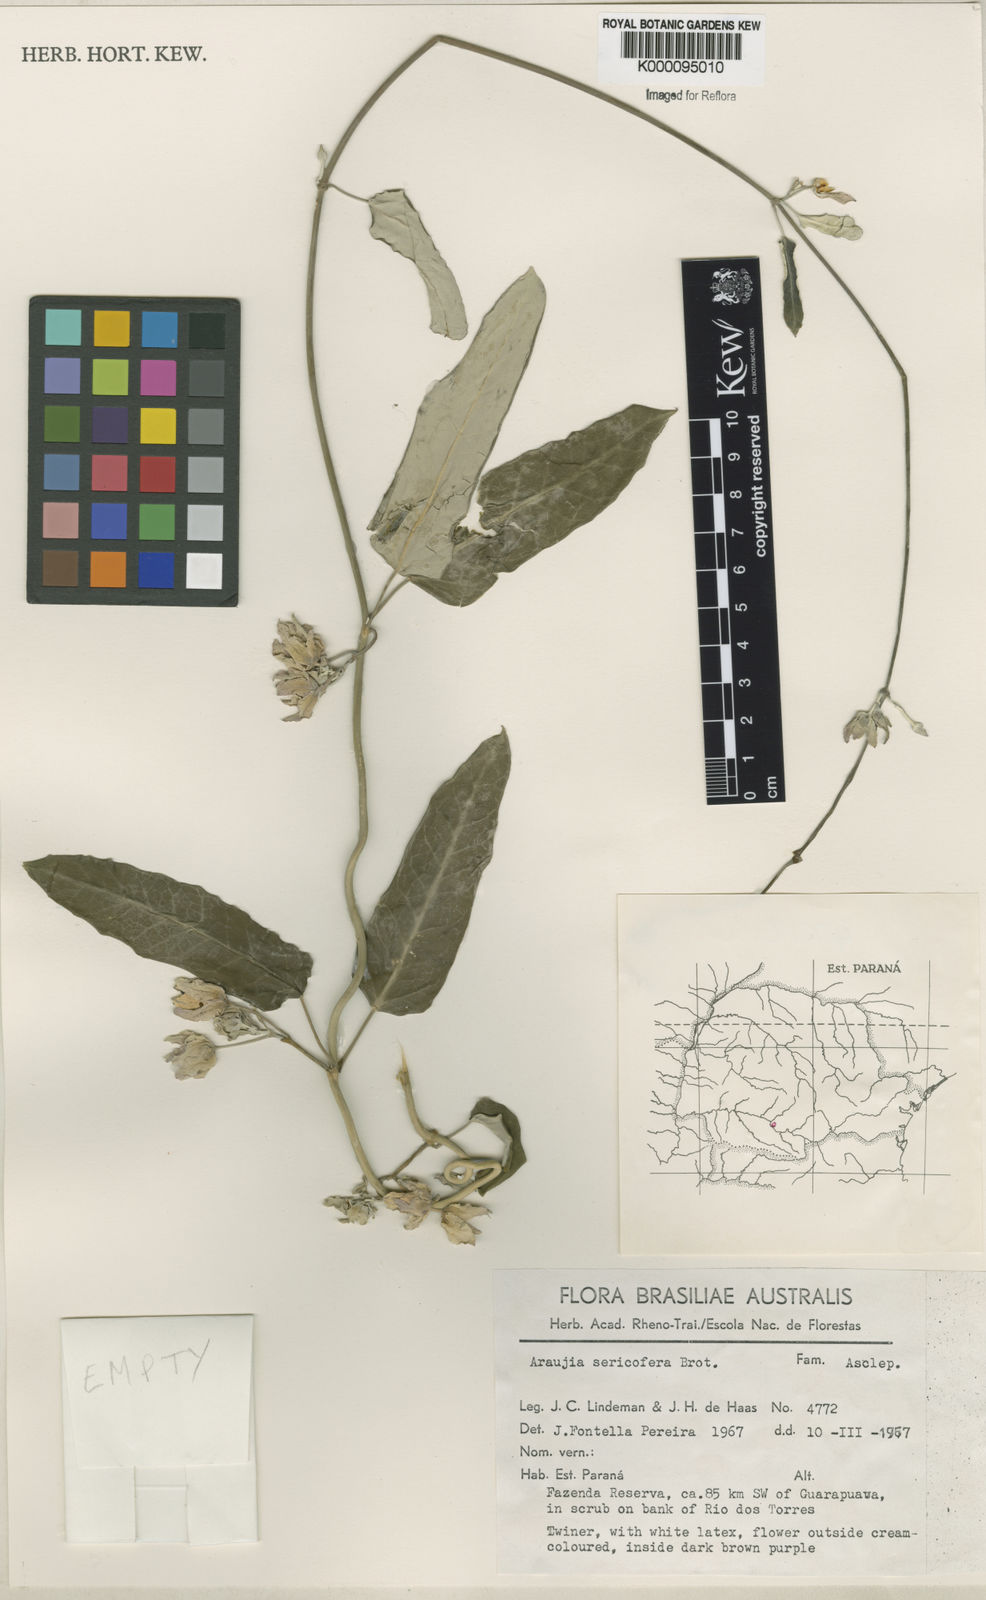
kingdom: Plantae
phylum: Tracheophyta
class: Magnoliopsida
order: Gentianales
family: Apocynaceae
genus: Araujia
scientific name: Araujia sericifera
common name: White bladderflower
